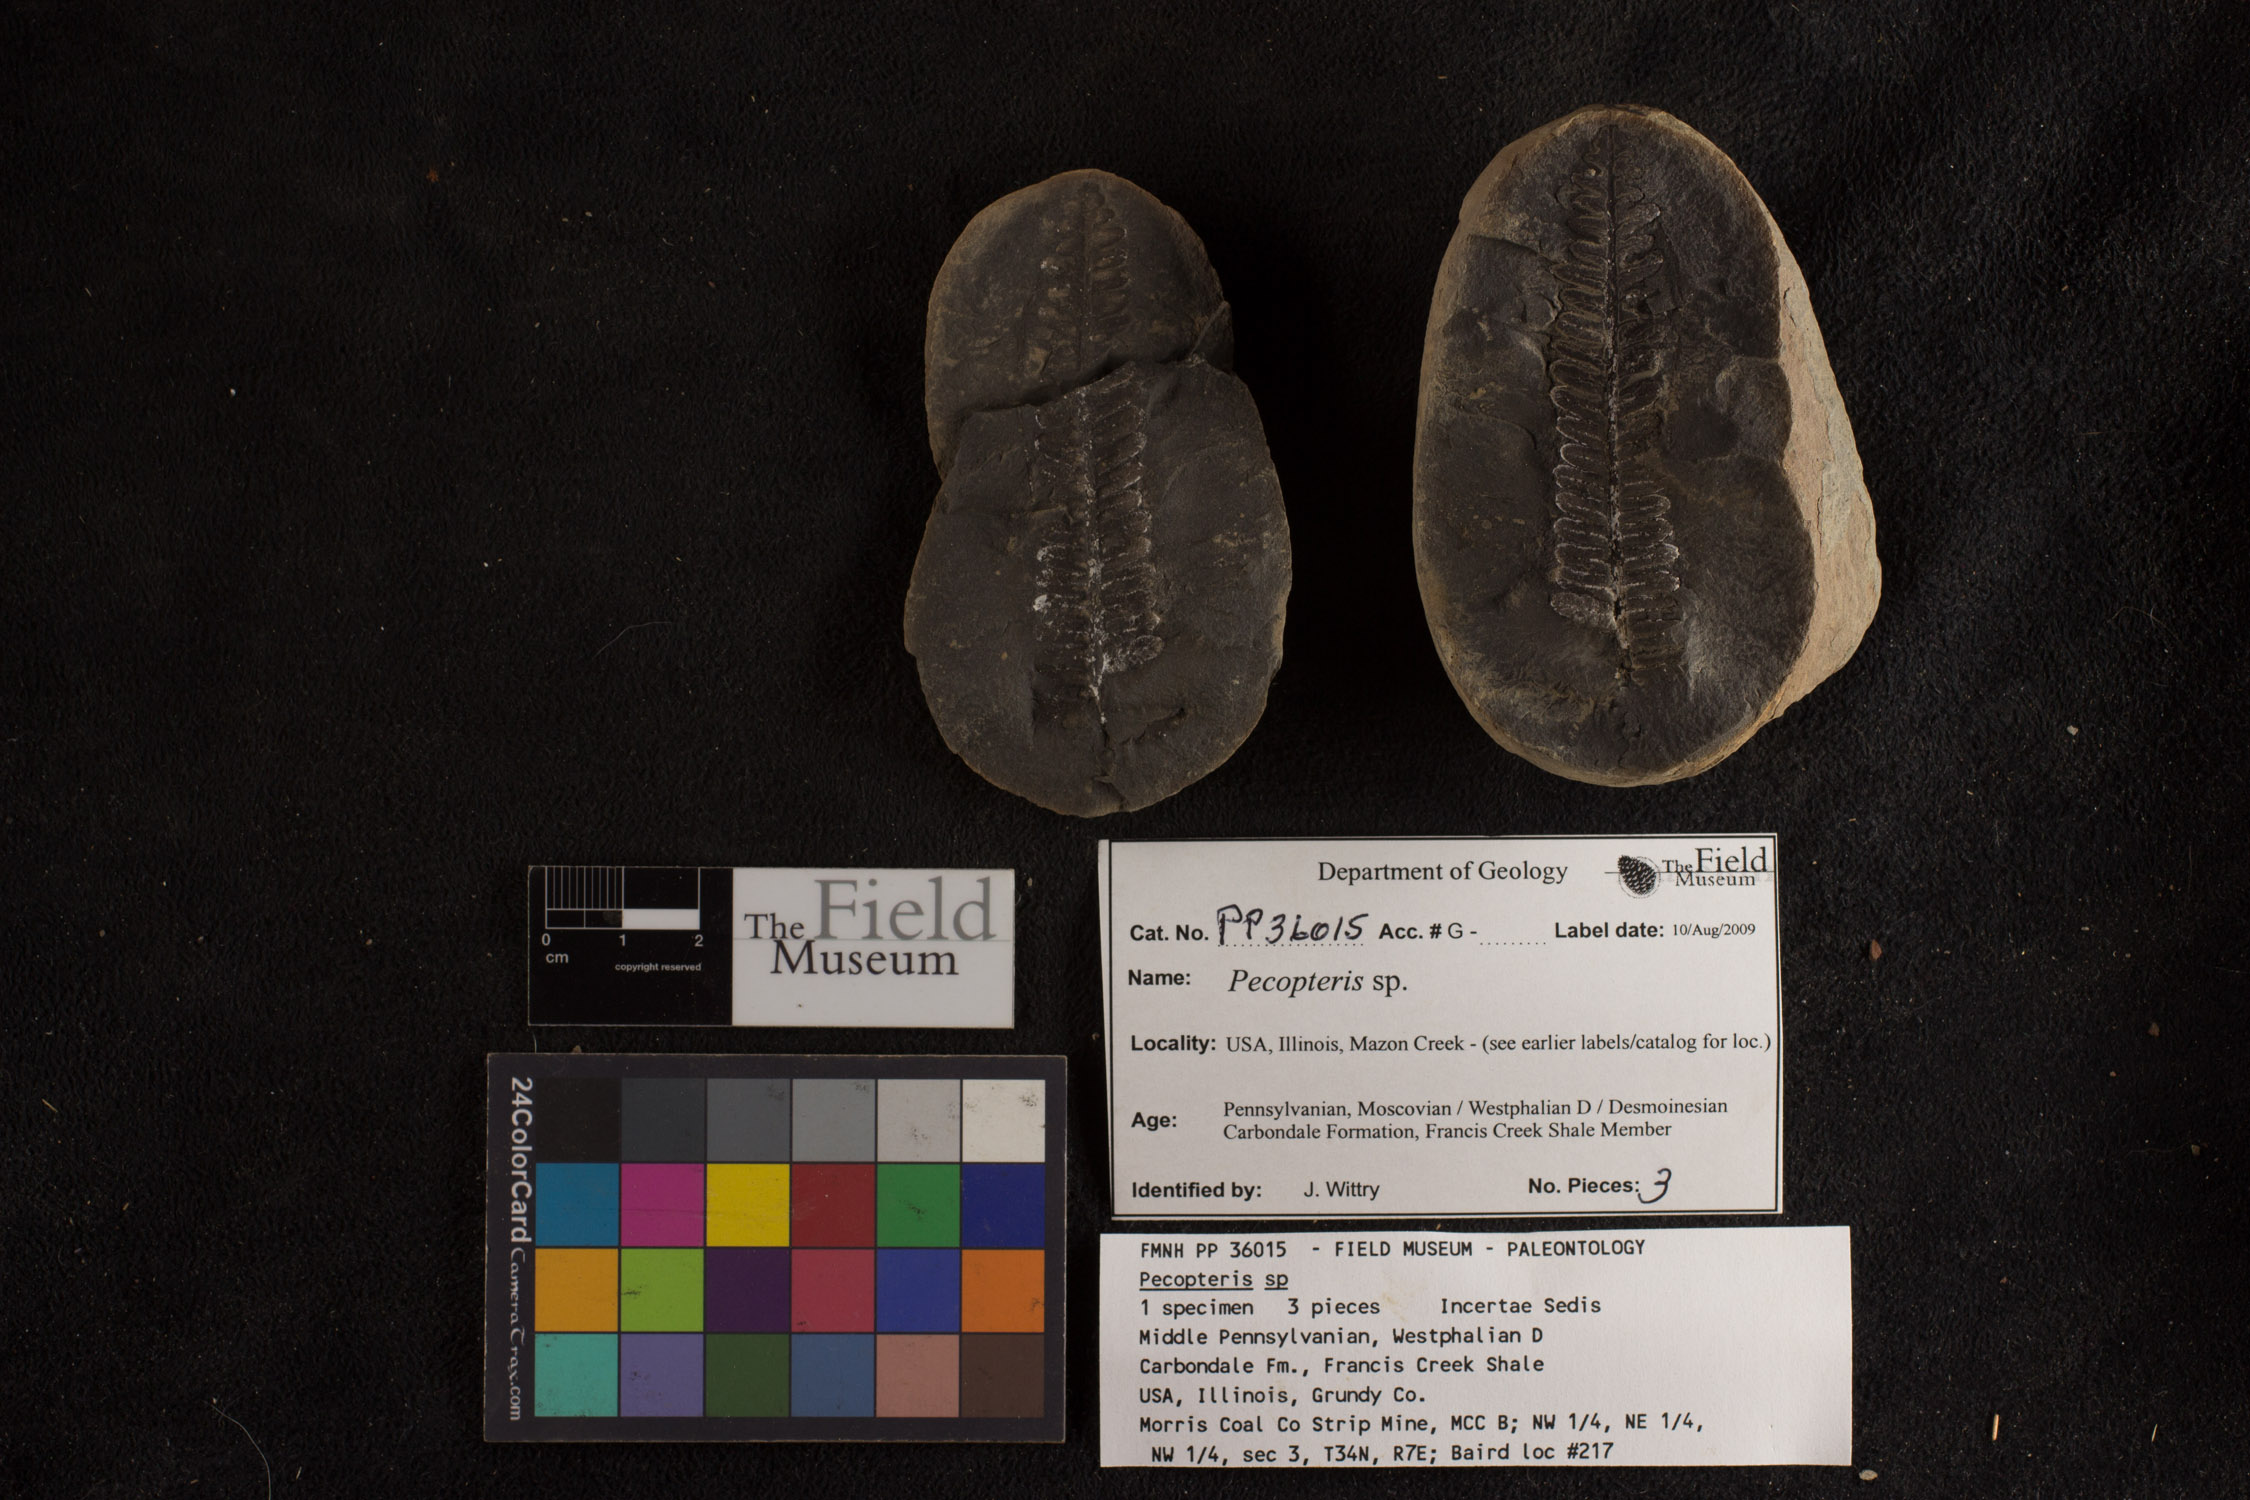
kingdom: Plantae
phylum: Tracheophyta
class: Polypodiopsida
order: Marattiales
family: Asterothecaceae
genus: Pecopteris
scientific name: Pecopteris
